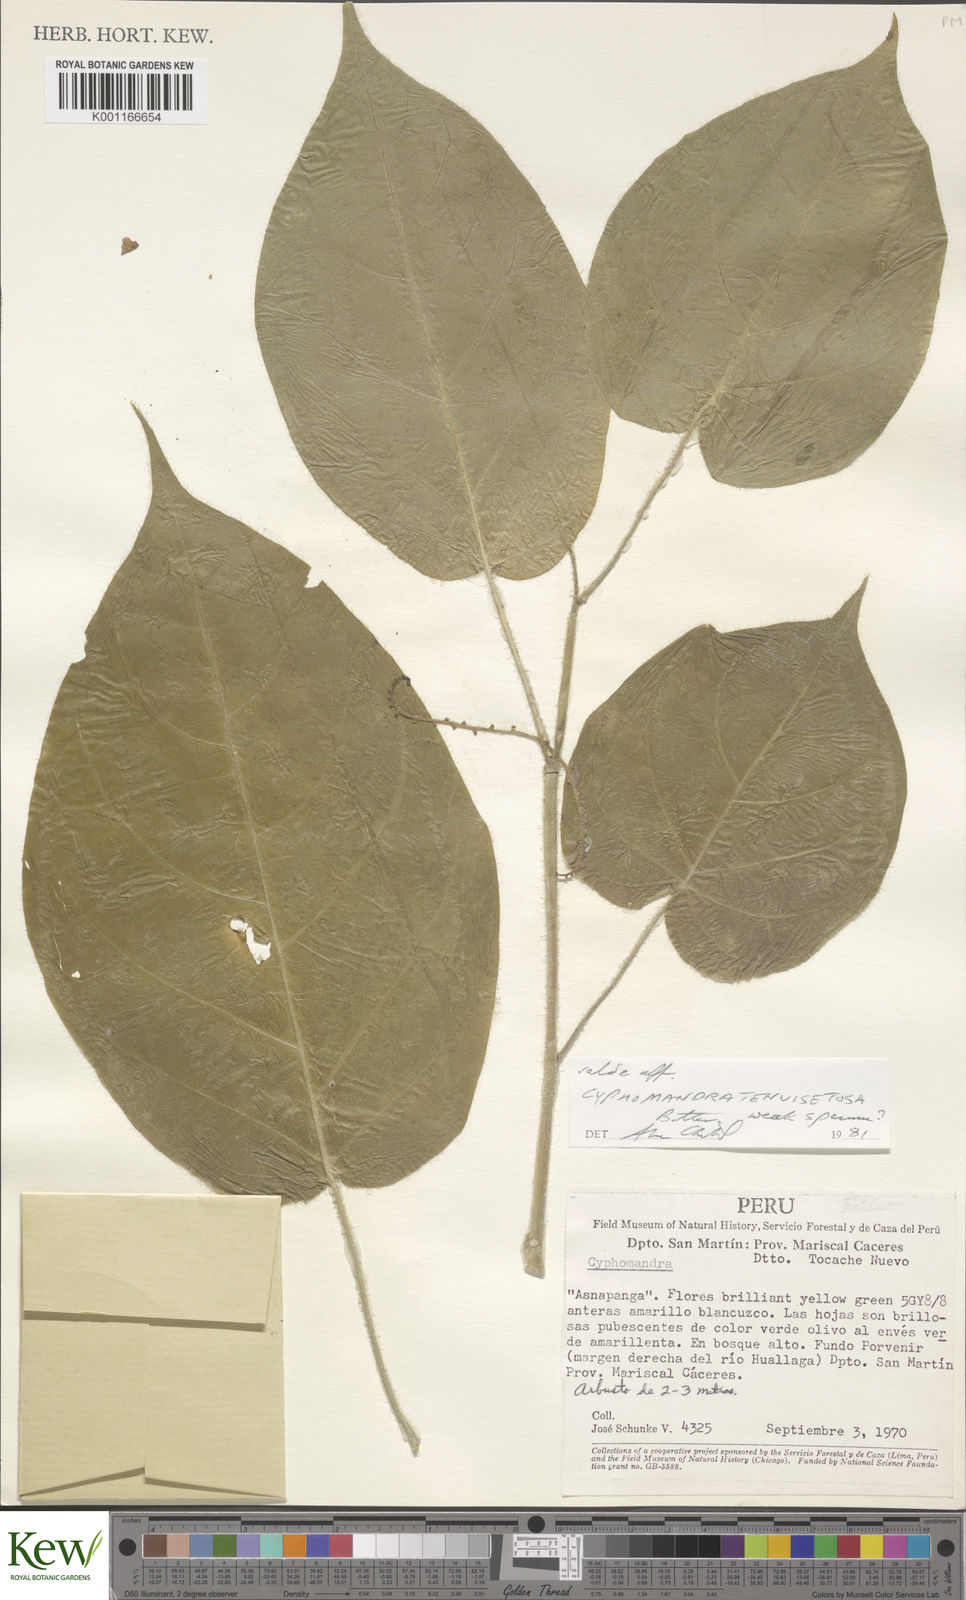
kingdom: Plantae
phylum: Tracheophyta
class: Magnoliopsida
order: Solanales
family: Solanaceae
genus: Solanum
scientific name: Solanum
